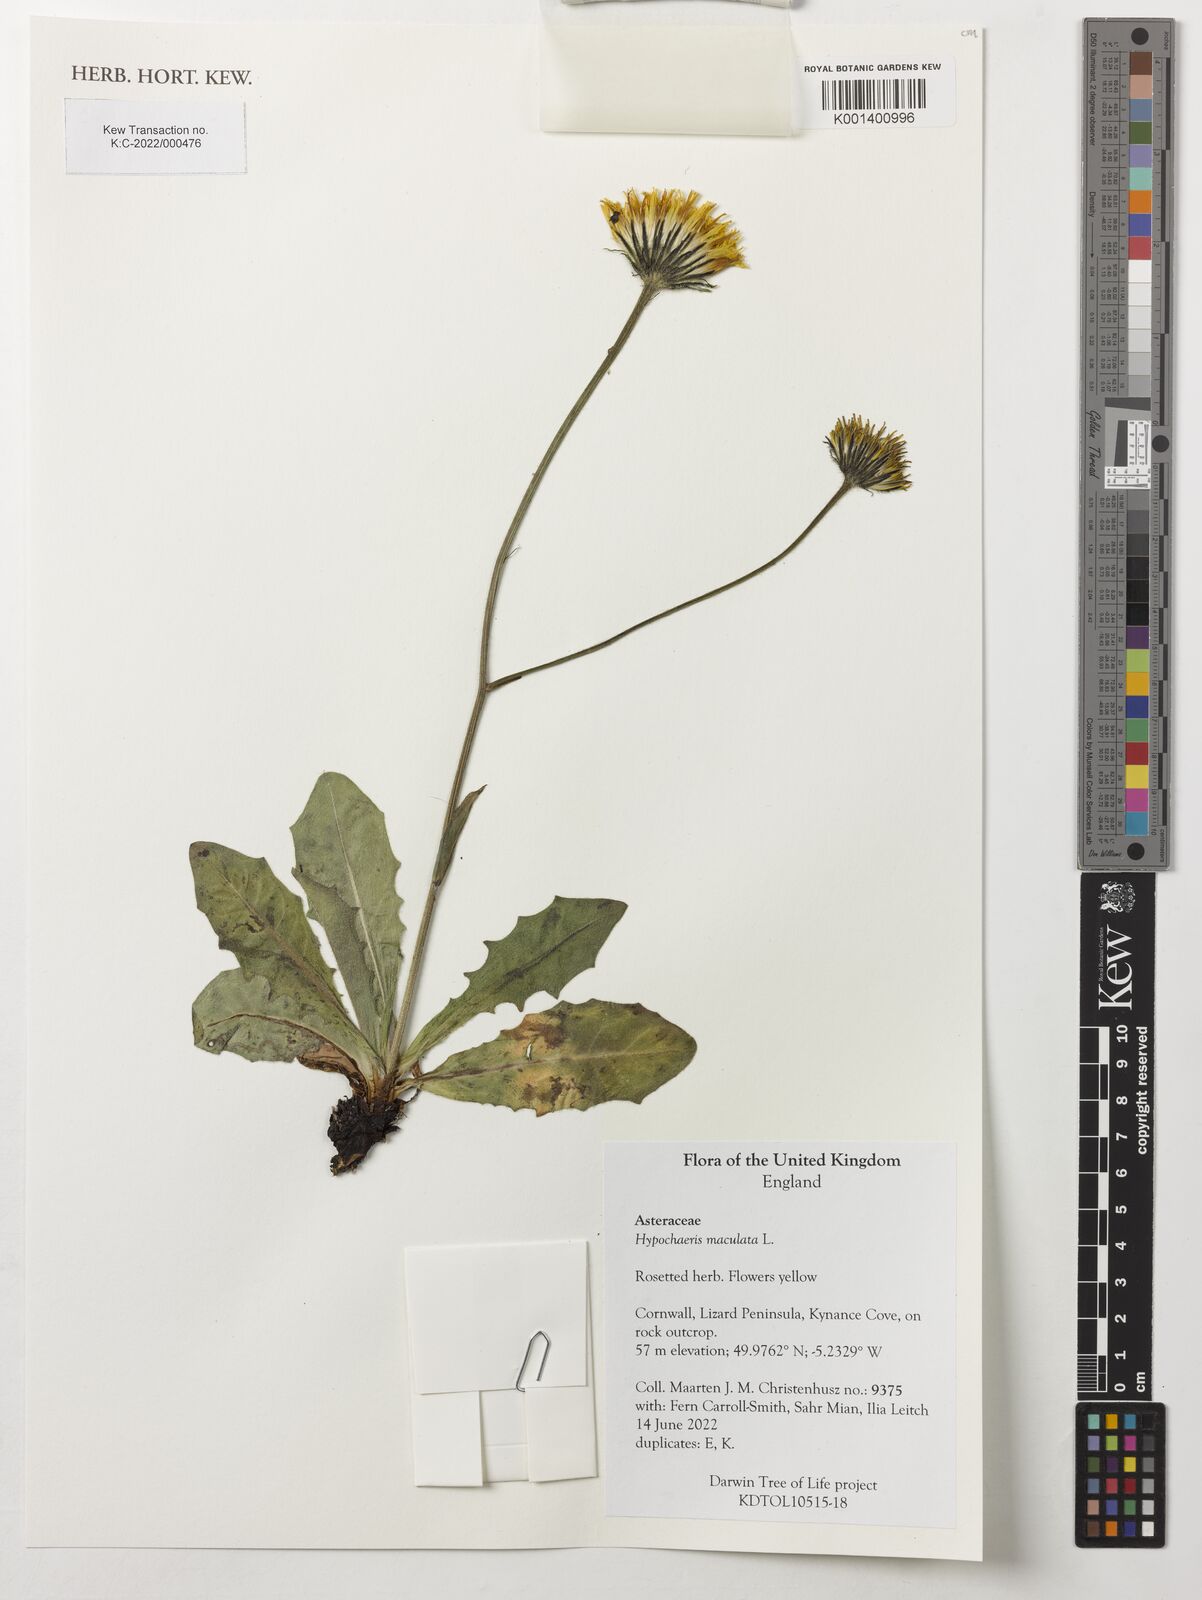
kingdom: Plantae
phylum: Tracheophyta
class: Magnoliopsida
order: Asterales
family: Asteraceae
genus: Trommsdorffia
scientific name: Trommsdorffia maculata
